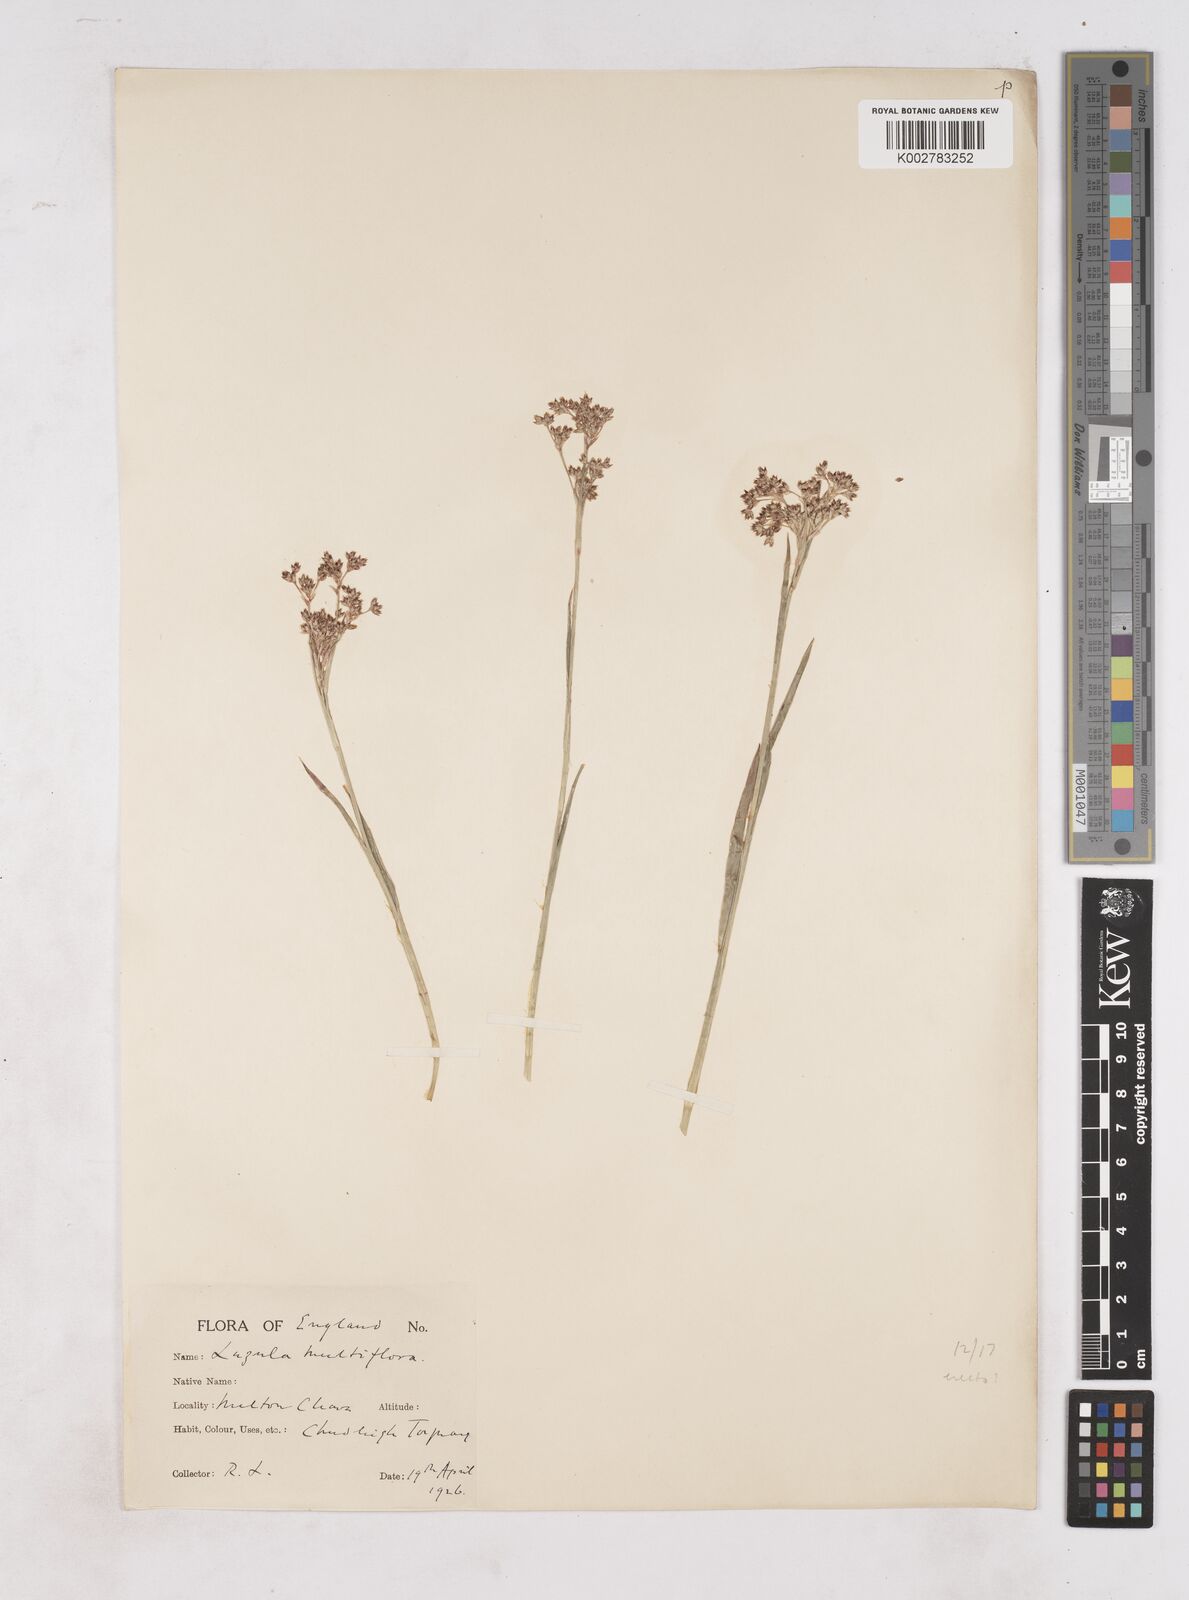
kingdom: Plantae
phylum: Tracheophyta
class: Liliopsida
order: Poales
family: Juncaceae
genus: Luzula
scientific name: Luzula multiflora
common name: Heath wood-rush
